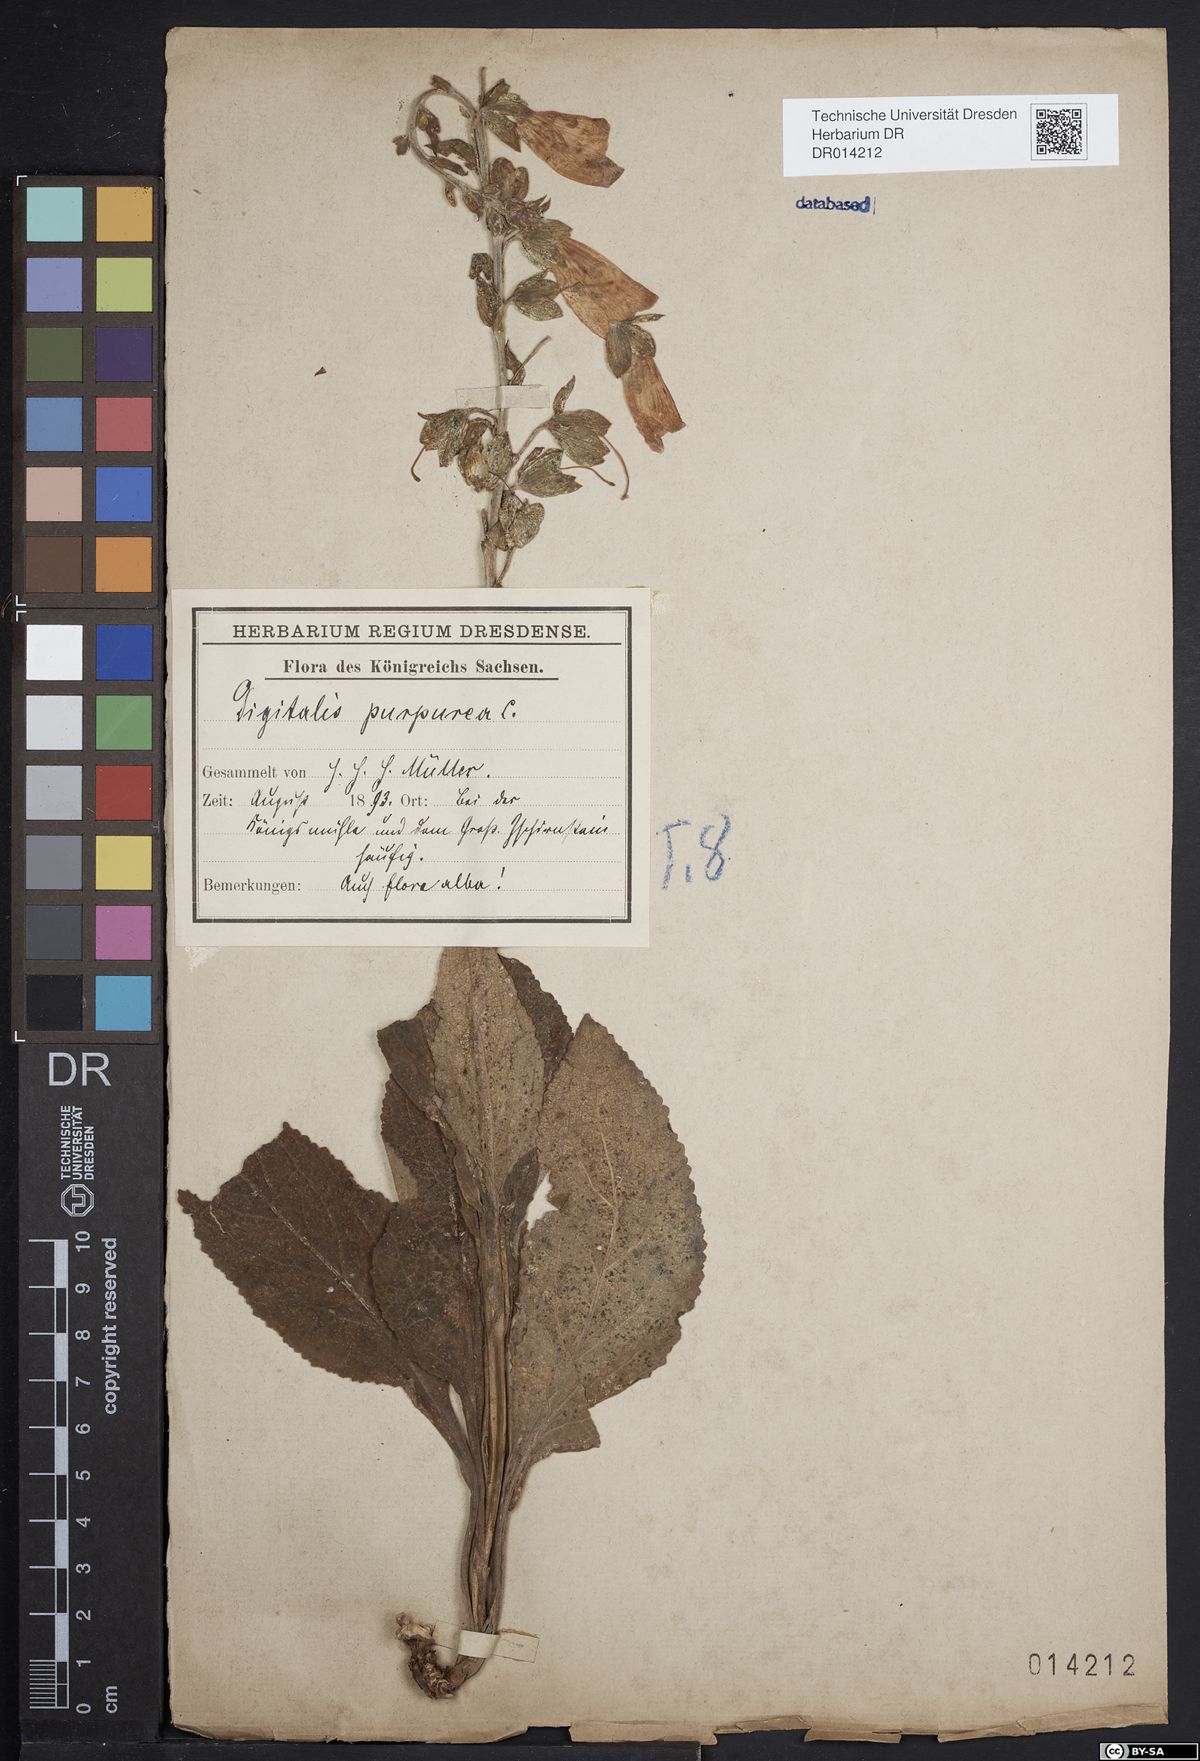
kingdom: Plantae
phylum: Tracheophyta
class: Magnoliopsida
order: Lamiales
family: Plantaginaceae
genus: Digitalis
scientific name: Digitalis purpurea
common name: Foxglove
